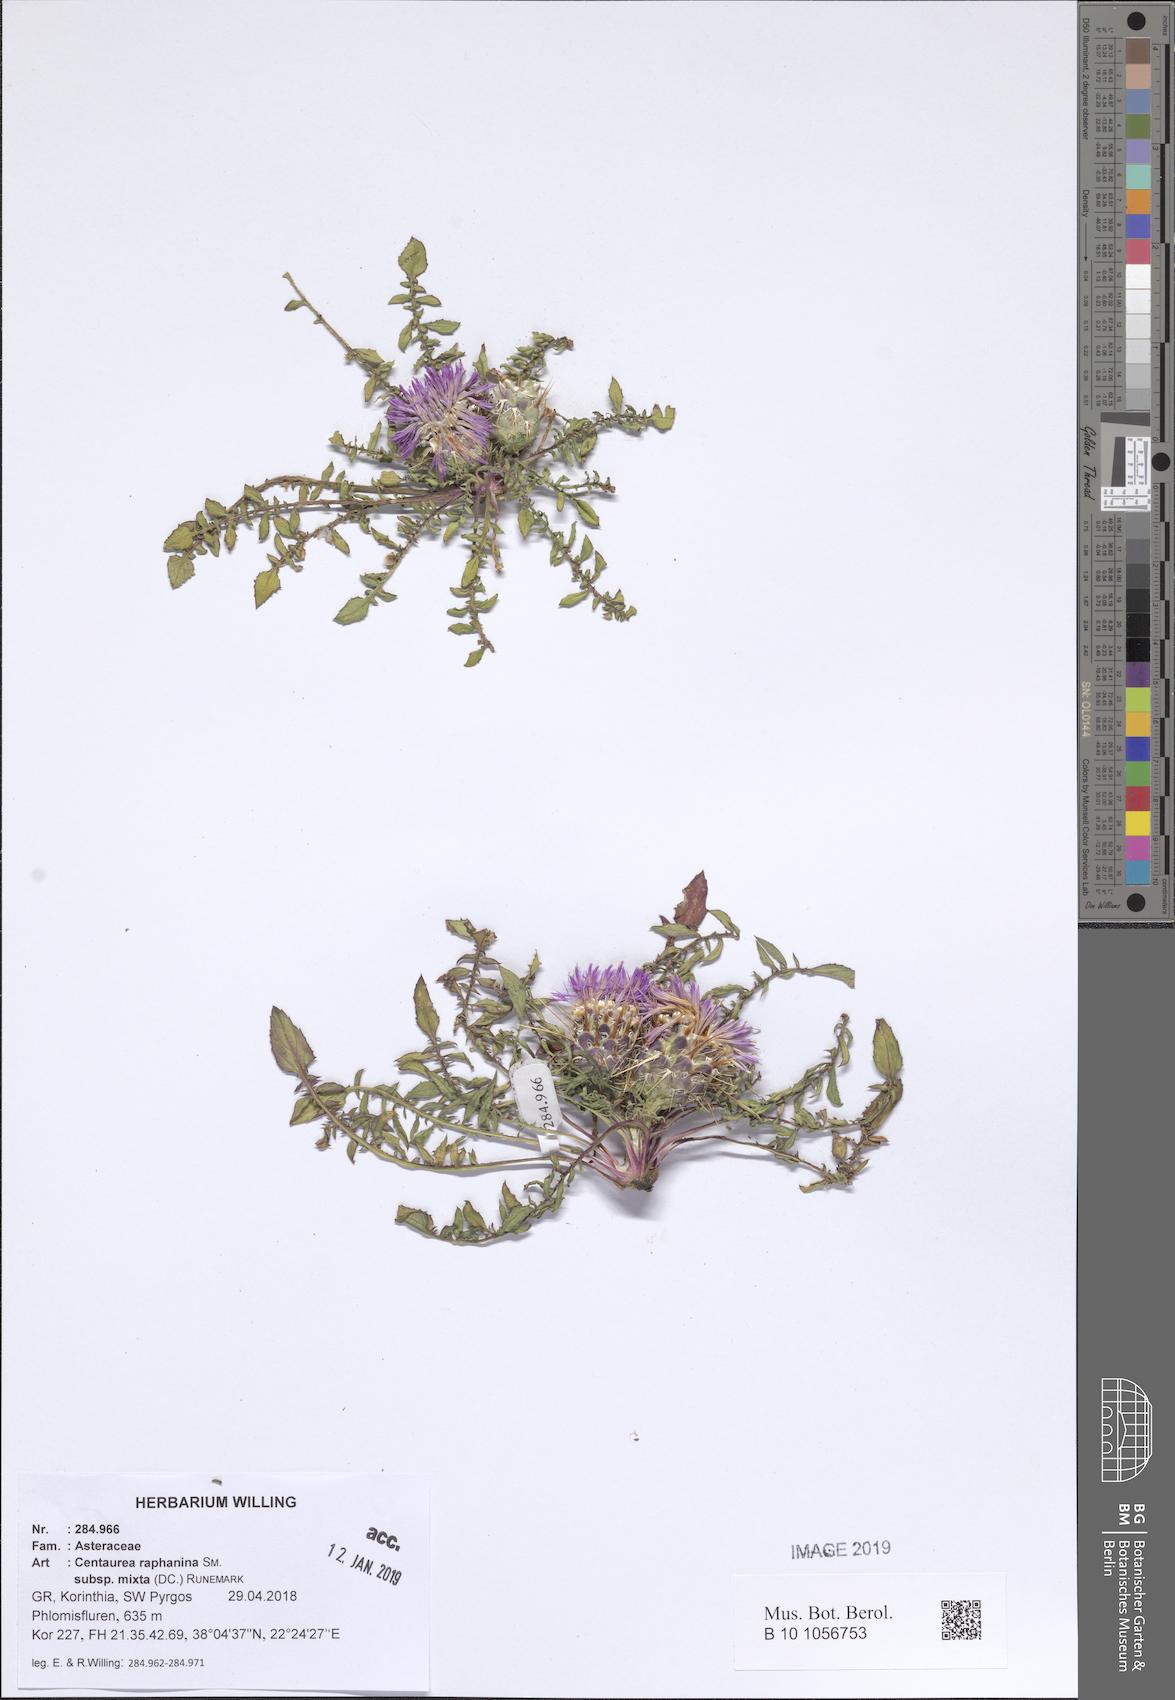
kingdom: Plantae
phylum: Tracheophyta
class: Magnoliopsida
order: Asterales
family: Asteraceae
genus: Centaurea
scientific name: Centaurea raphanina
